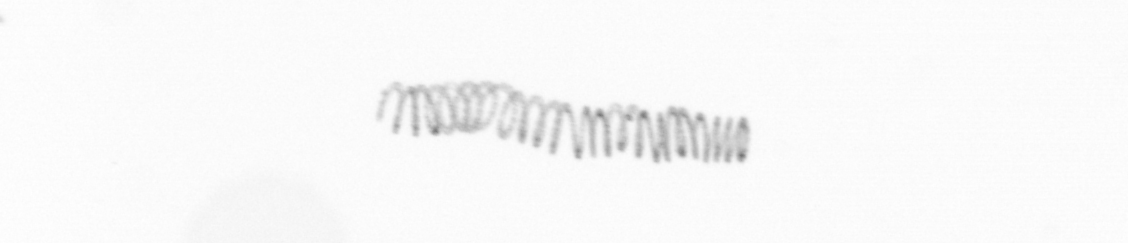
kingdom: Chromista
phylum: Ochrophyta
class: Bacillariophyceae
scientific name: Bacillariophyceae
